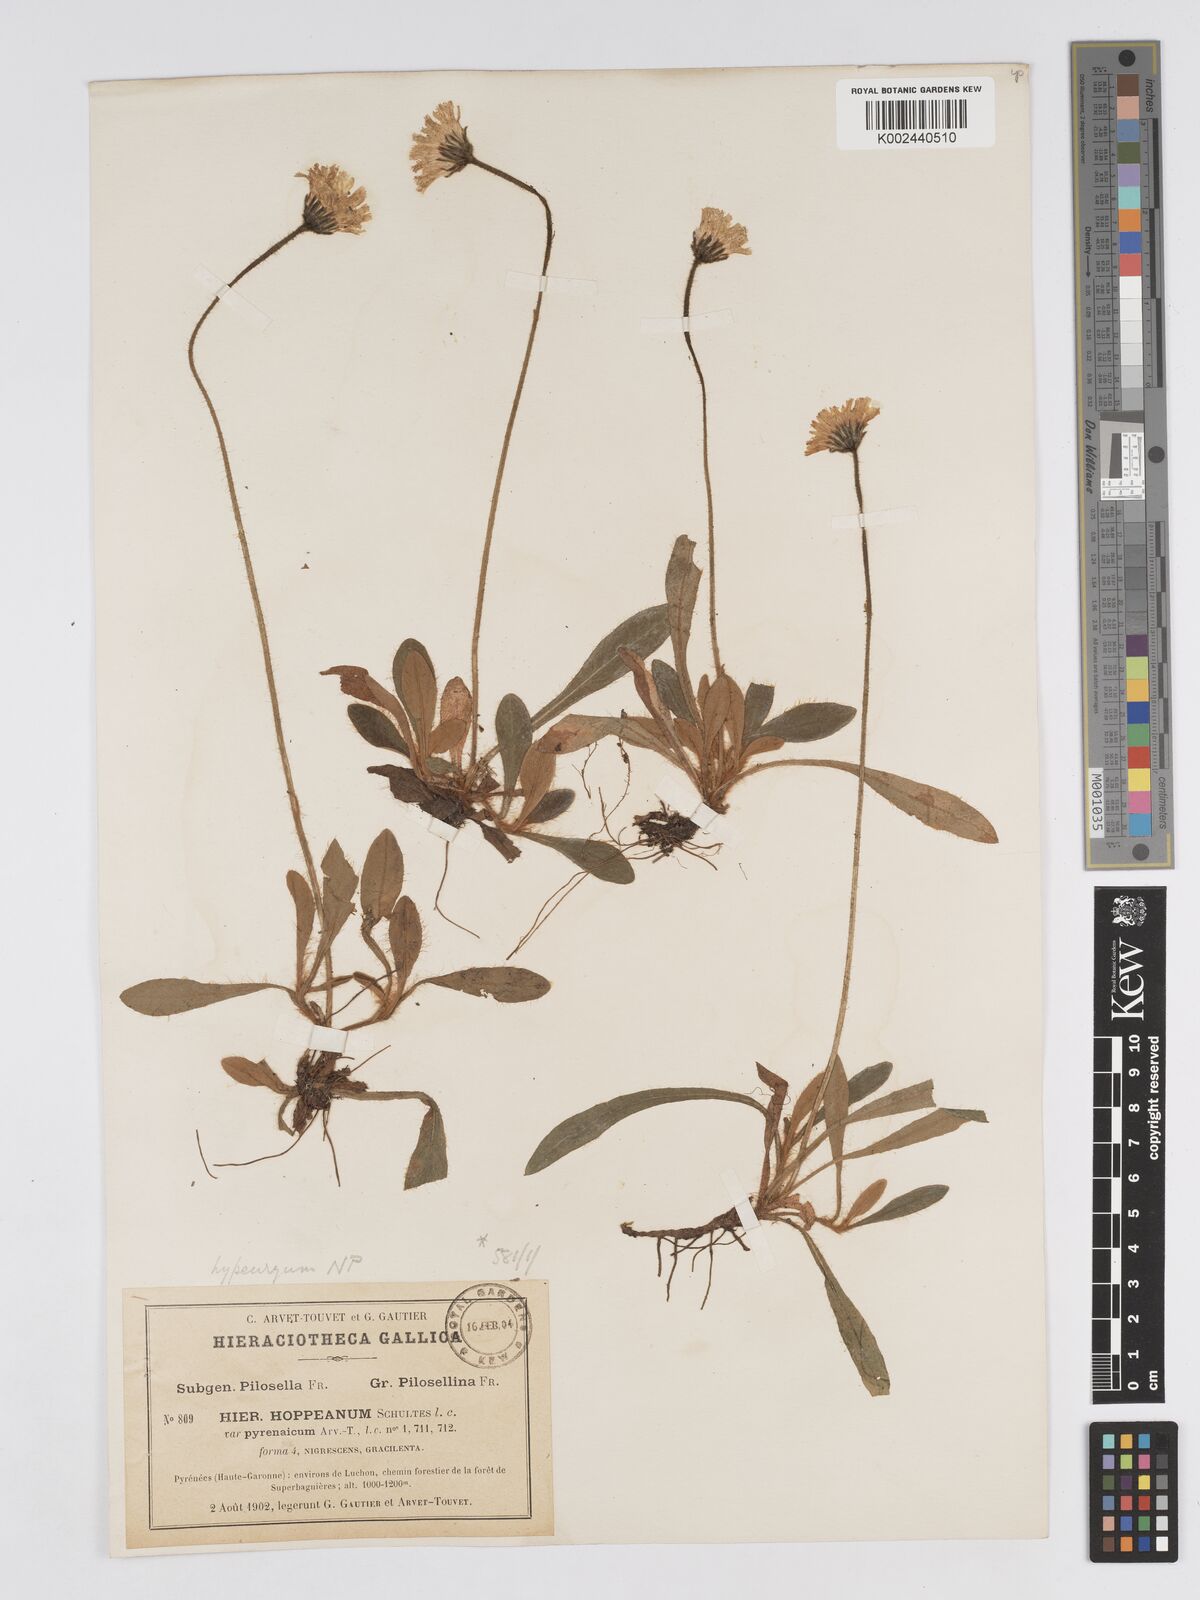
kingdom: Plantae
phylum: Tracheophyta
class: Magnoliopsida
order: Asterales
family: Asteraceae
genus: Pilosella
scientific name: Pilosella hypeurya
